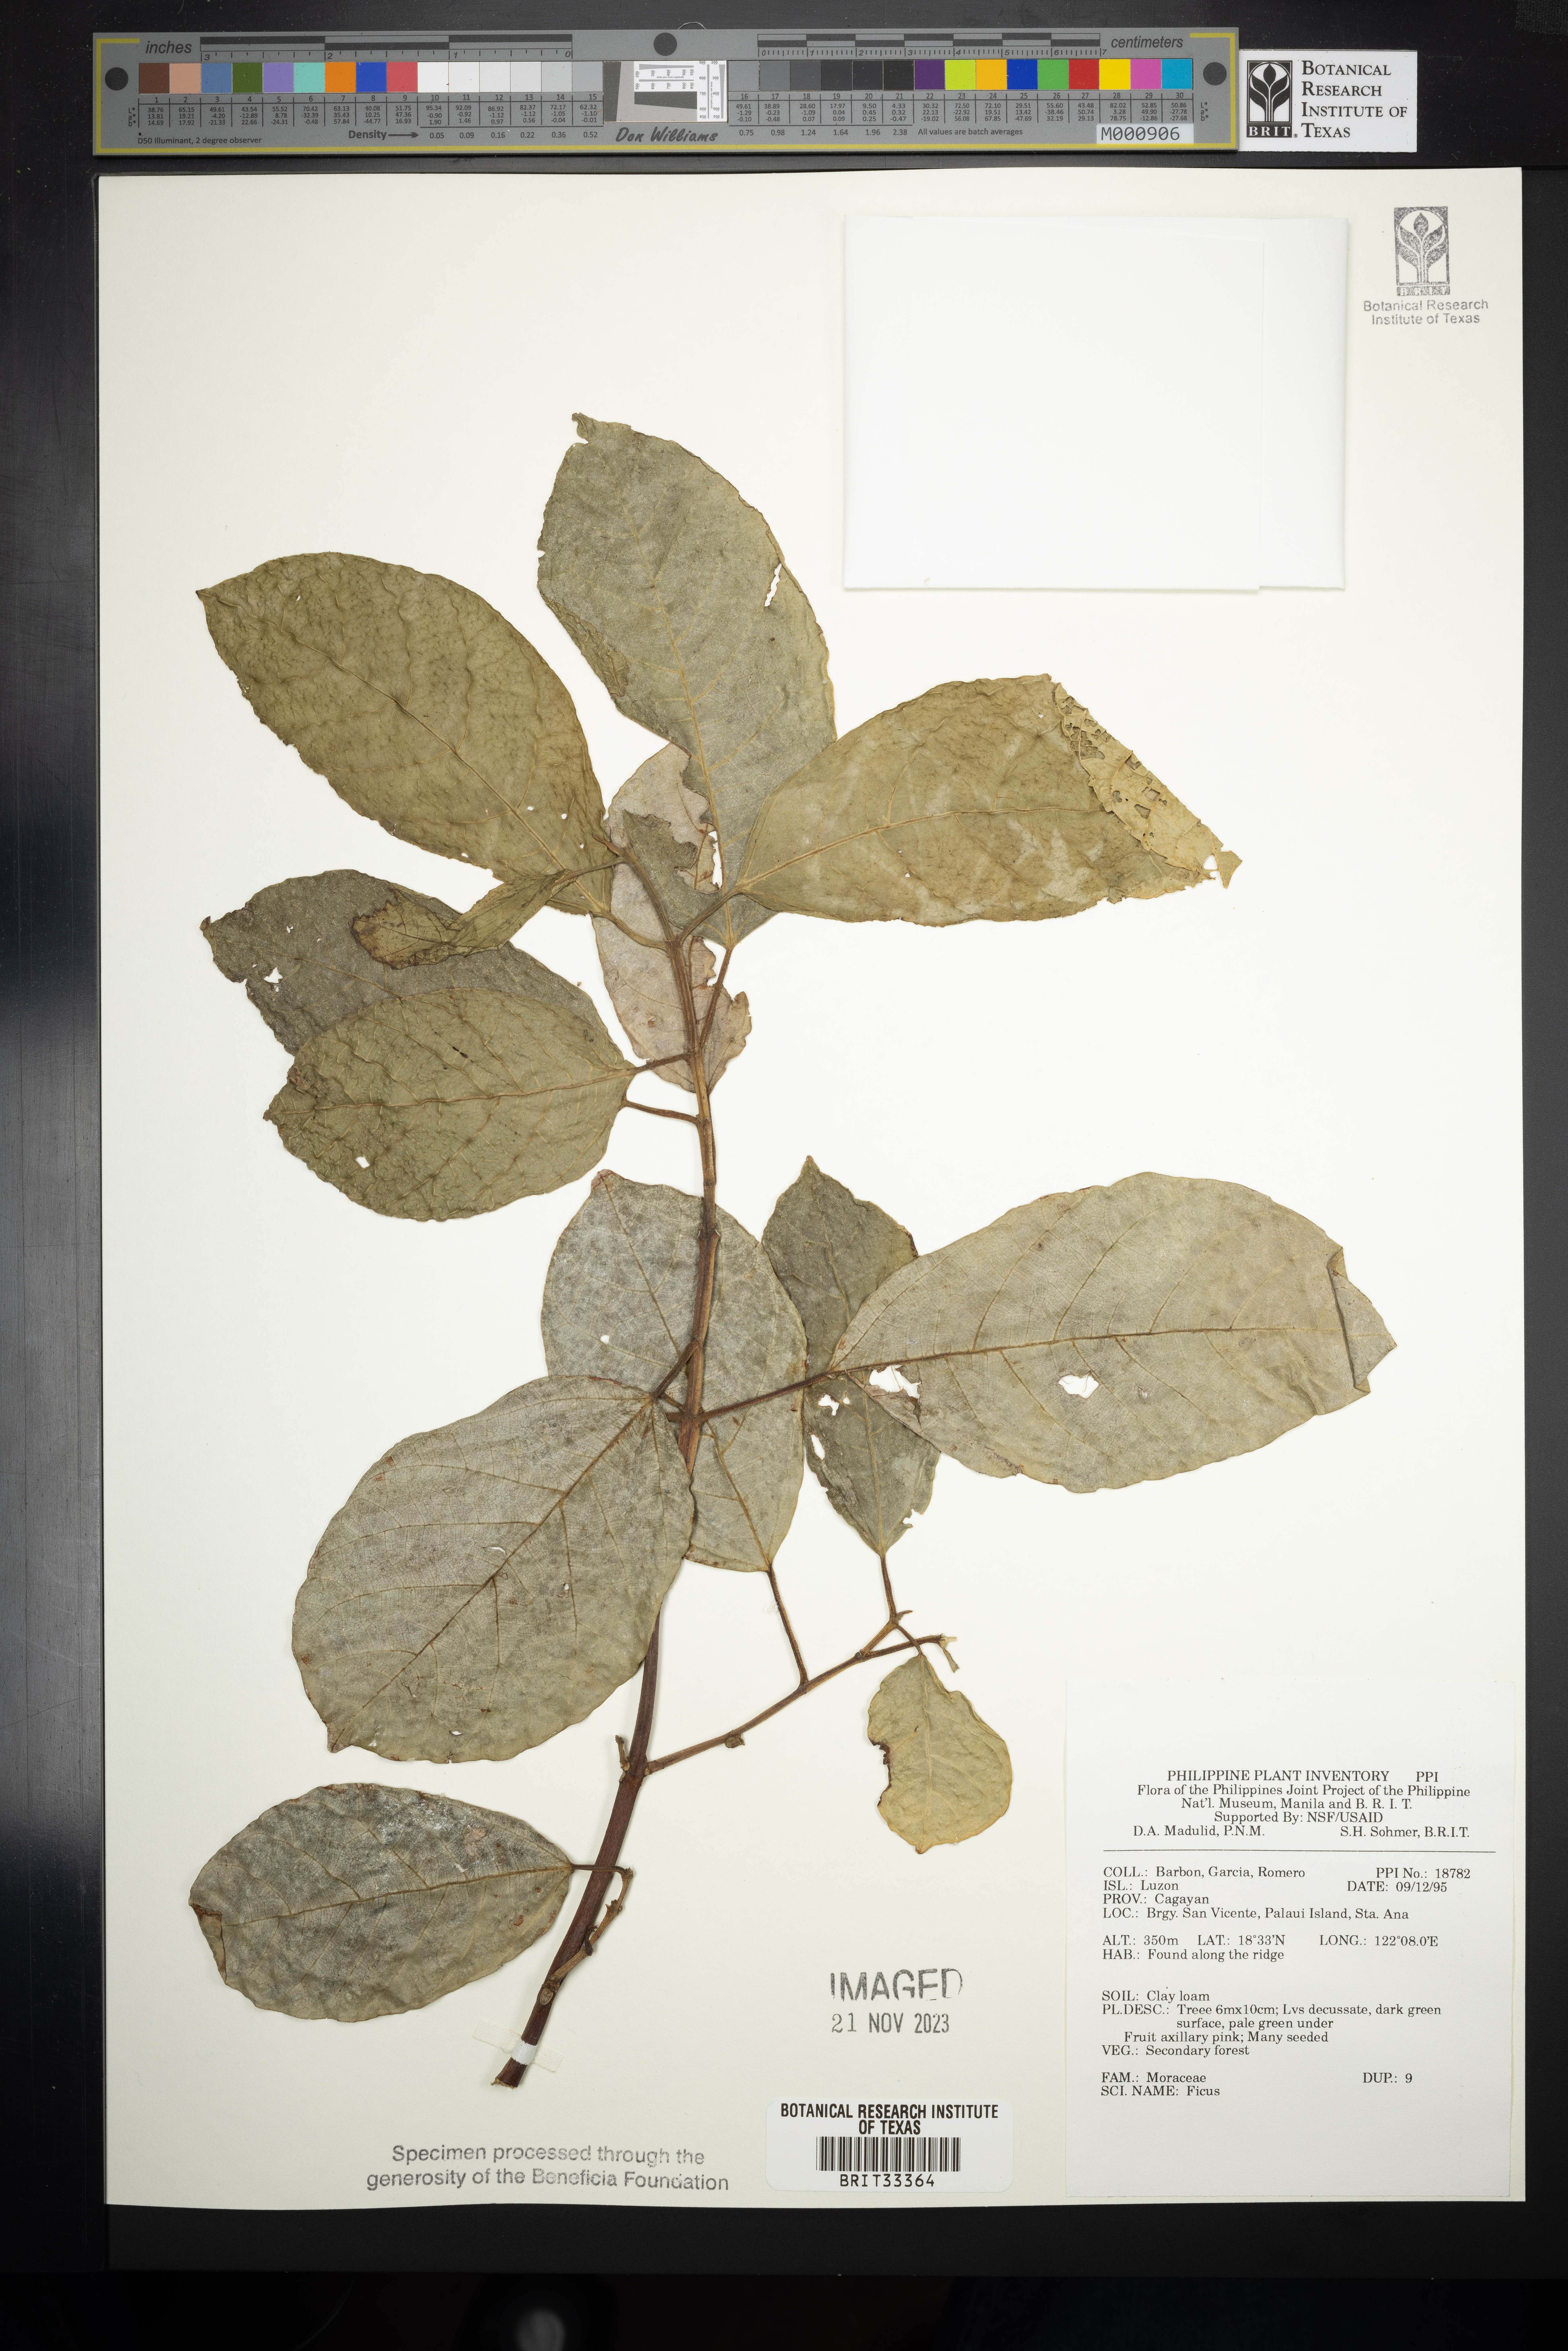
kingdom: Plantae
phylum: Tracheophyta
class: Magnoliopsida
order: Rosales
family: Moraceae
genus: Ficus
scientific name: Ficus
